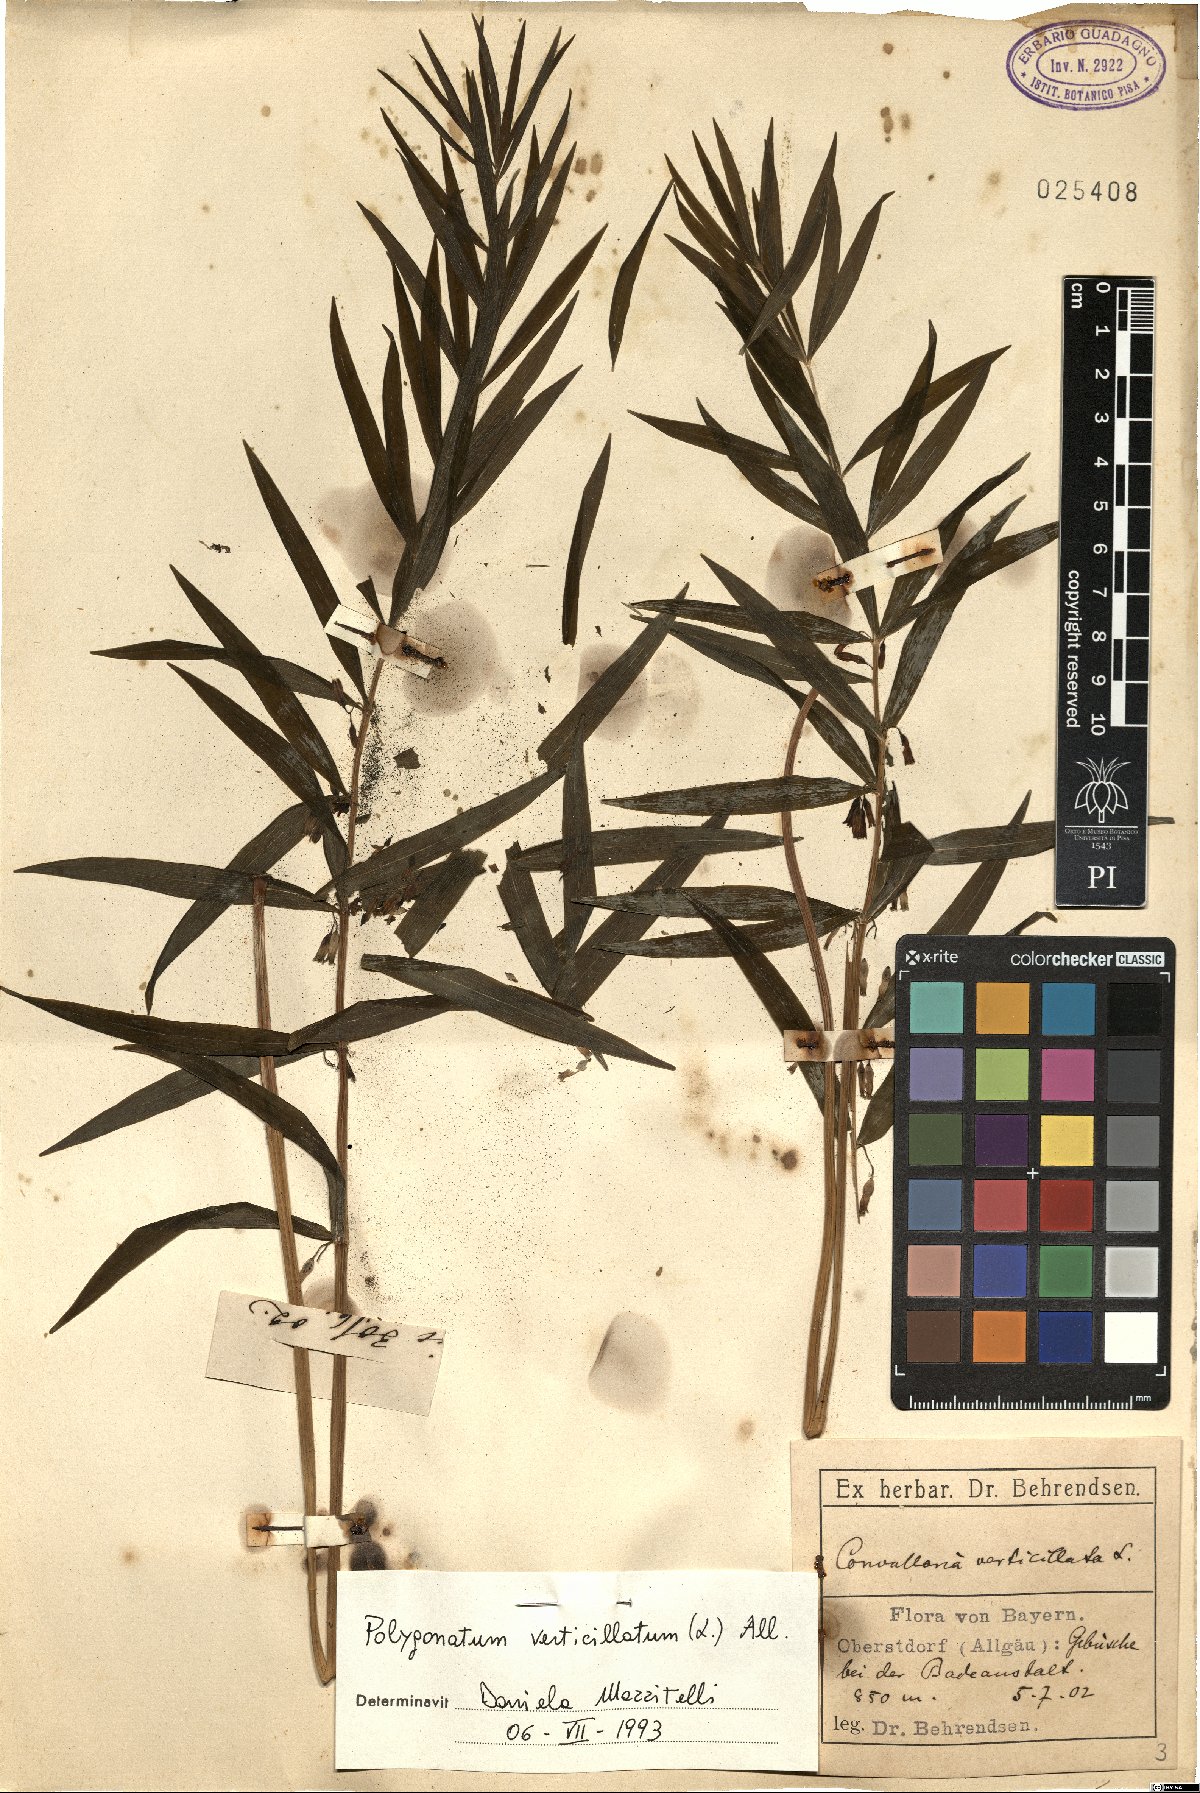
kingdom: Plantae
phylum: Tracheophyta
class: Liliopsida
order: Asparagales
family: Asparagaceae
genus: Polygonatum
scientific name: Polygonatum verticillatum
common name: Whorled solomon's-seal
